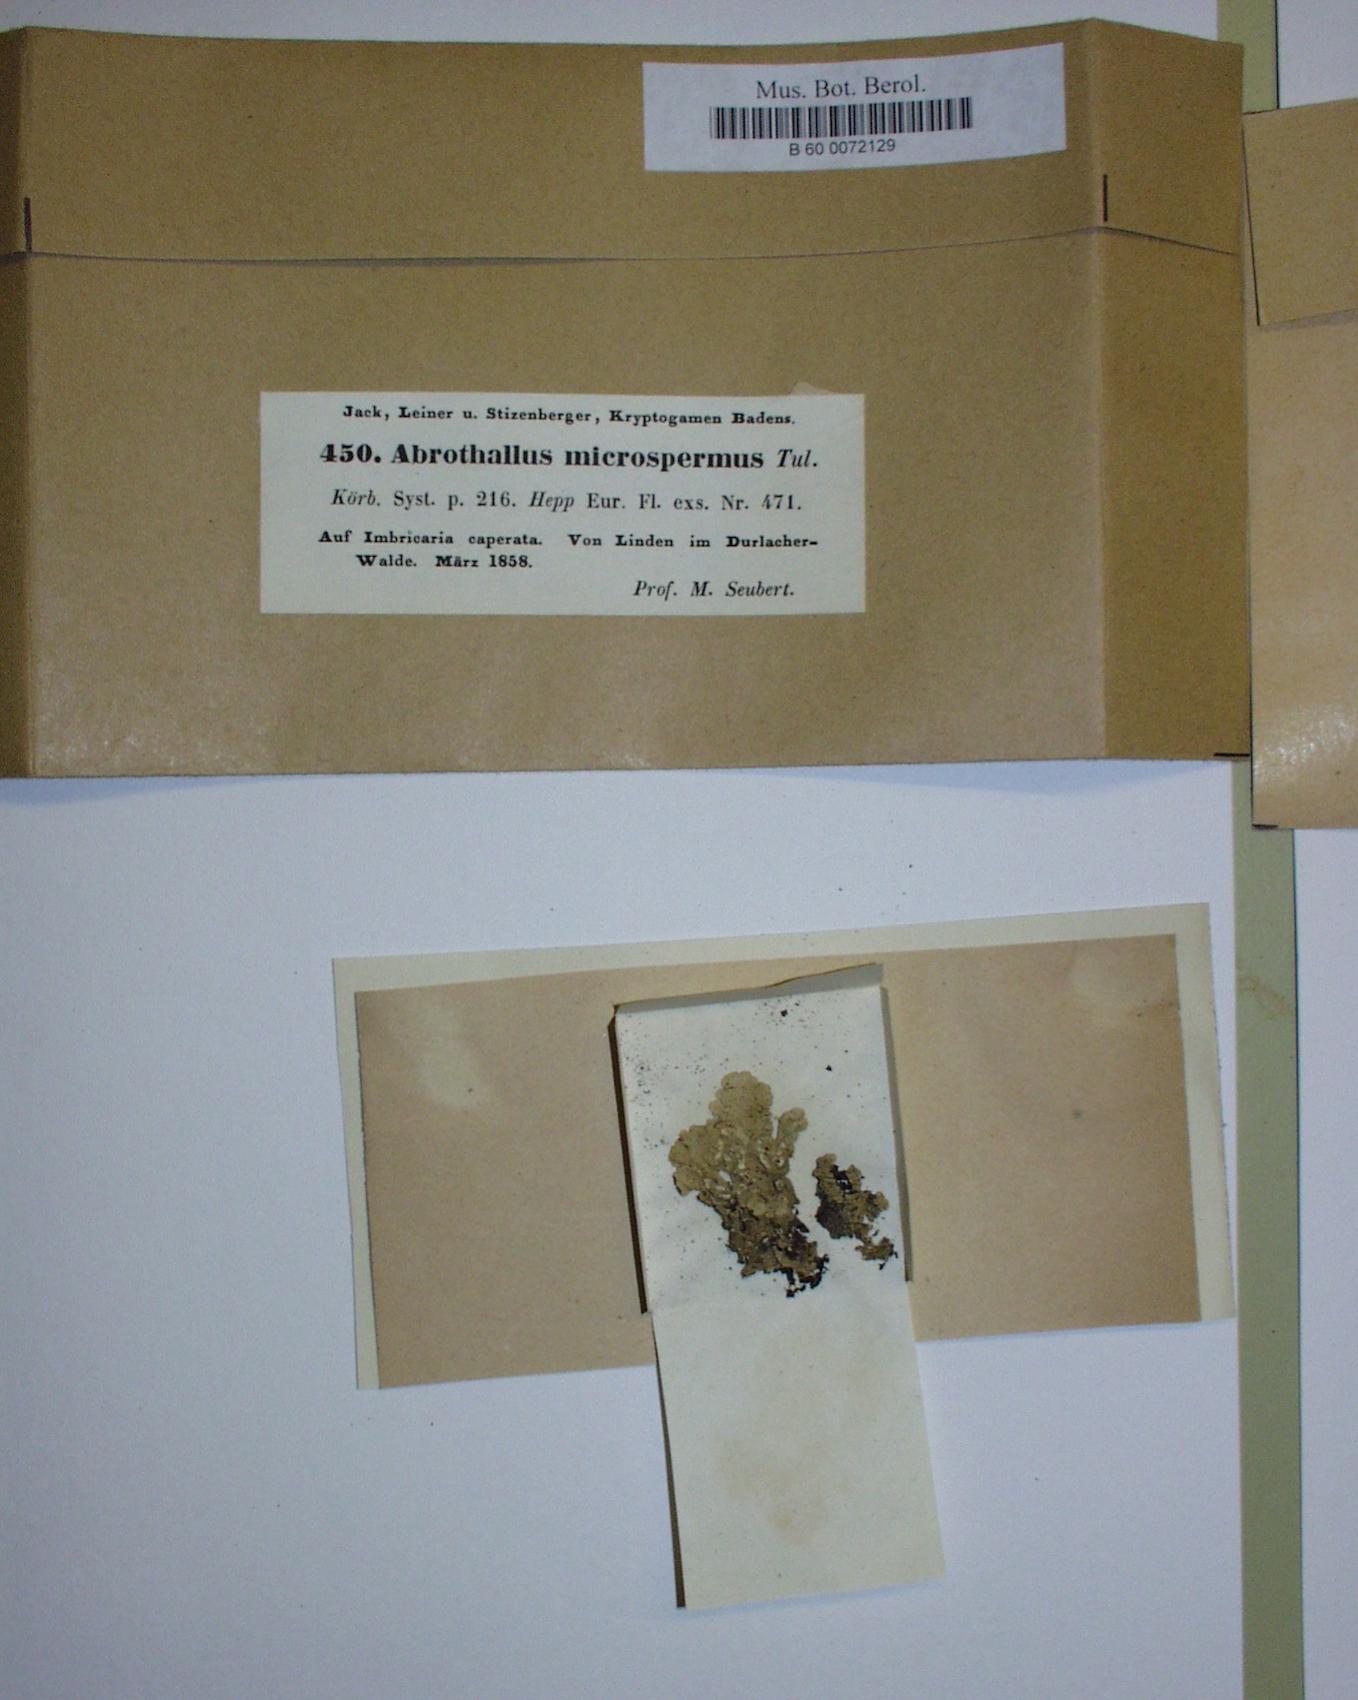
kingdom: Fungi
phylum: Ascomycota
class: Dothideomycetes
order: Abrothallales
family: Abrothallaceae
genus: Abrothallus
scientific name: Abrothallus microspermus
